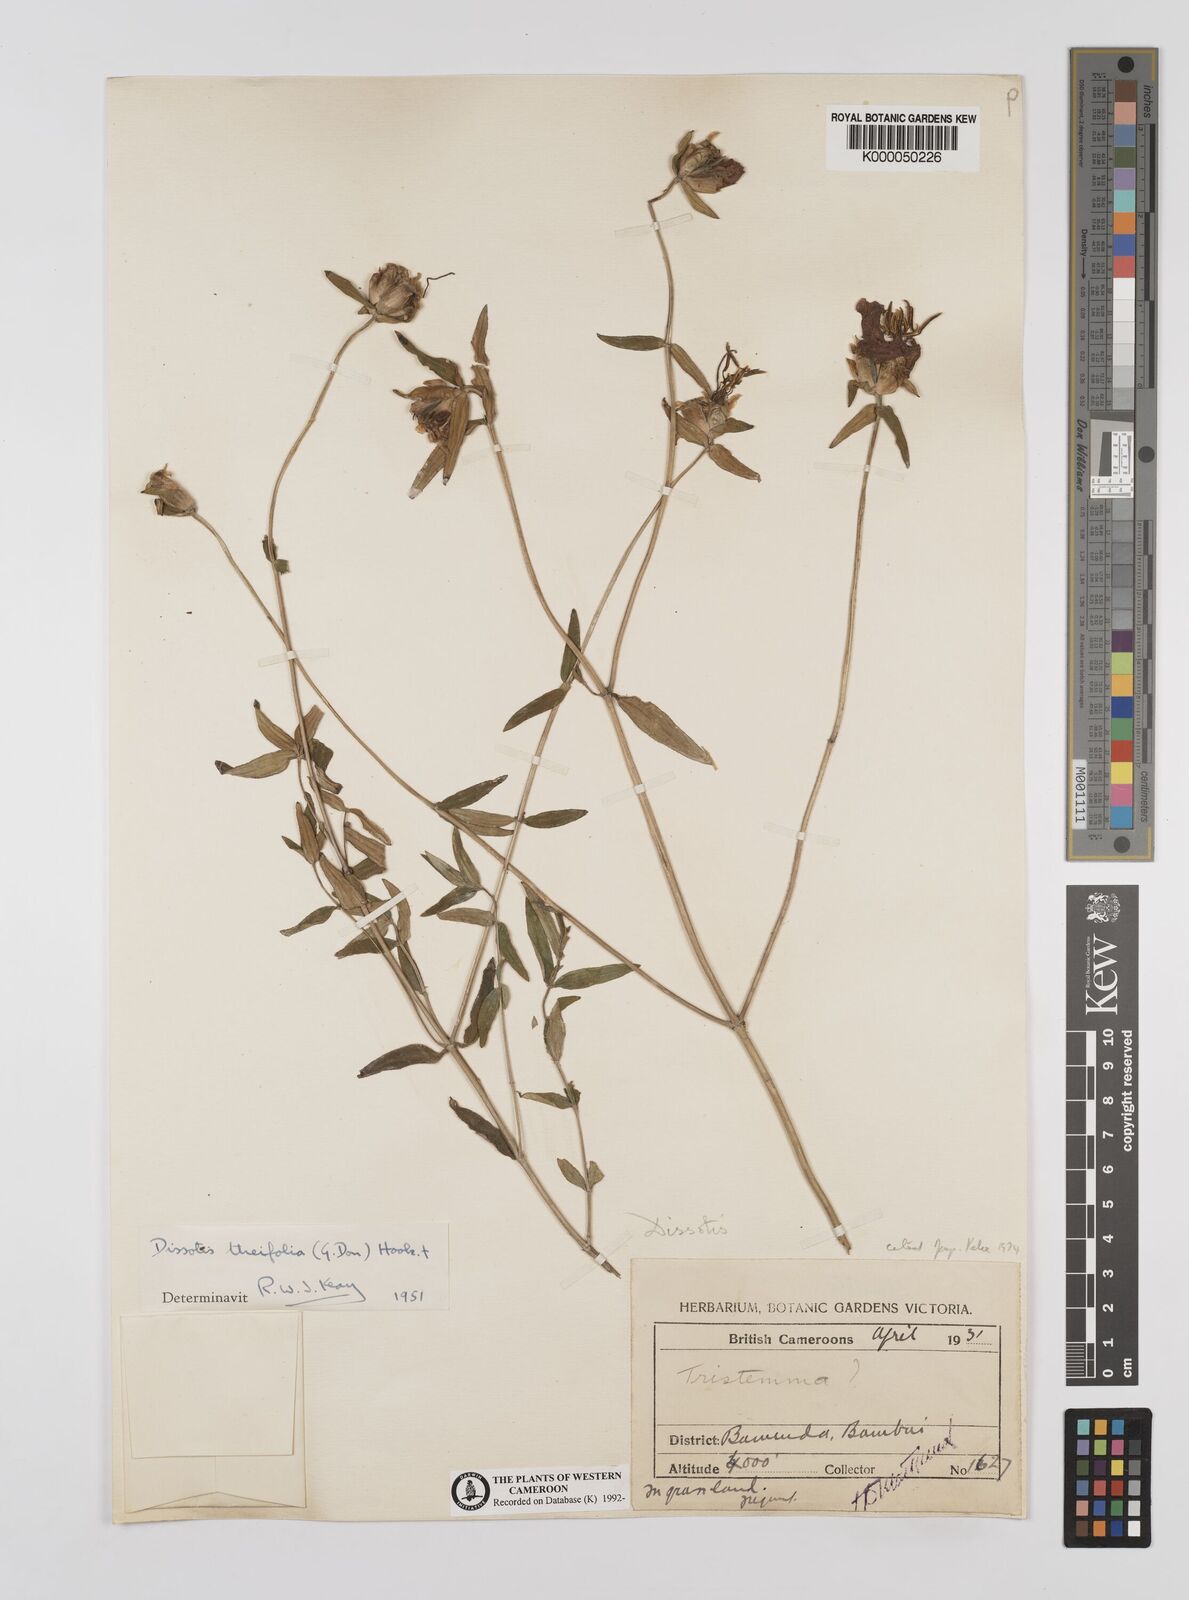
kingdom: Plantae
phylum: Tracheophyta
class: Magnoliopsida
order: Myrtales
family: Melastomataceae
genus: Melastomastrum
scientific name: Melastomastrum theifolium
